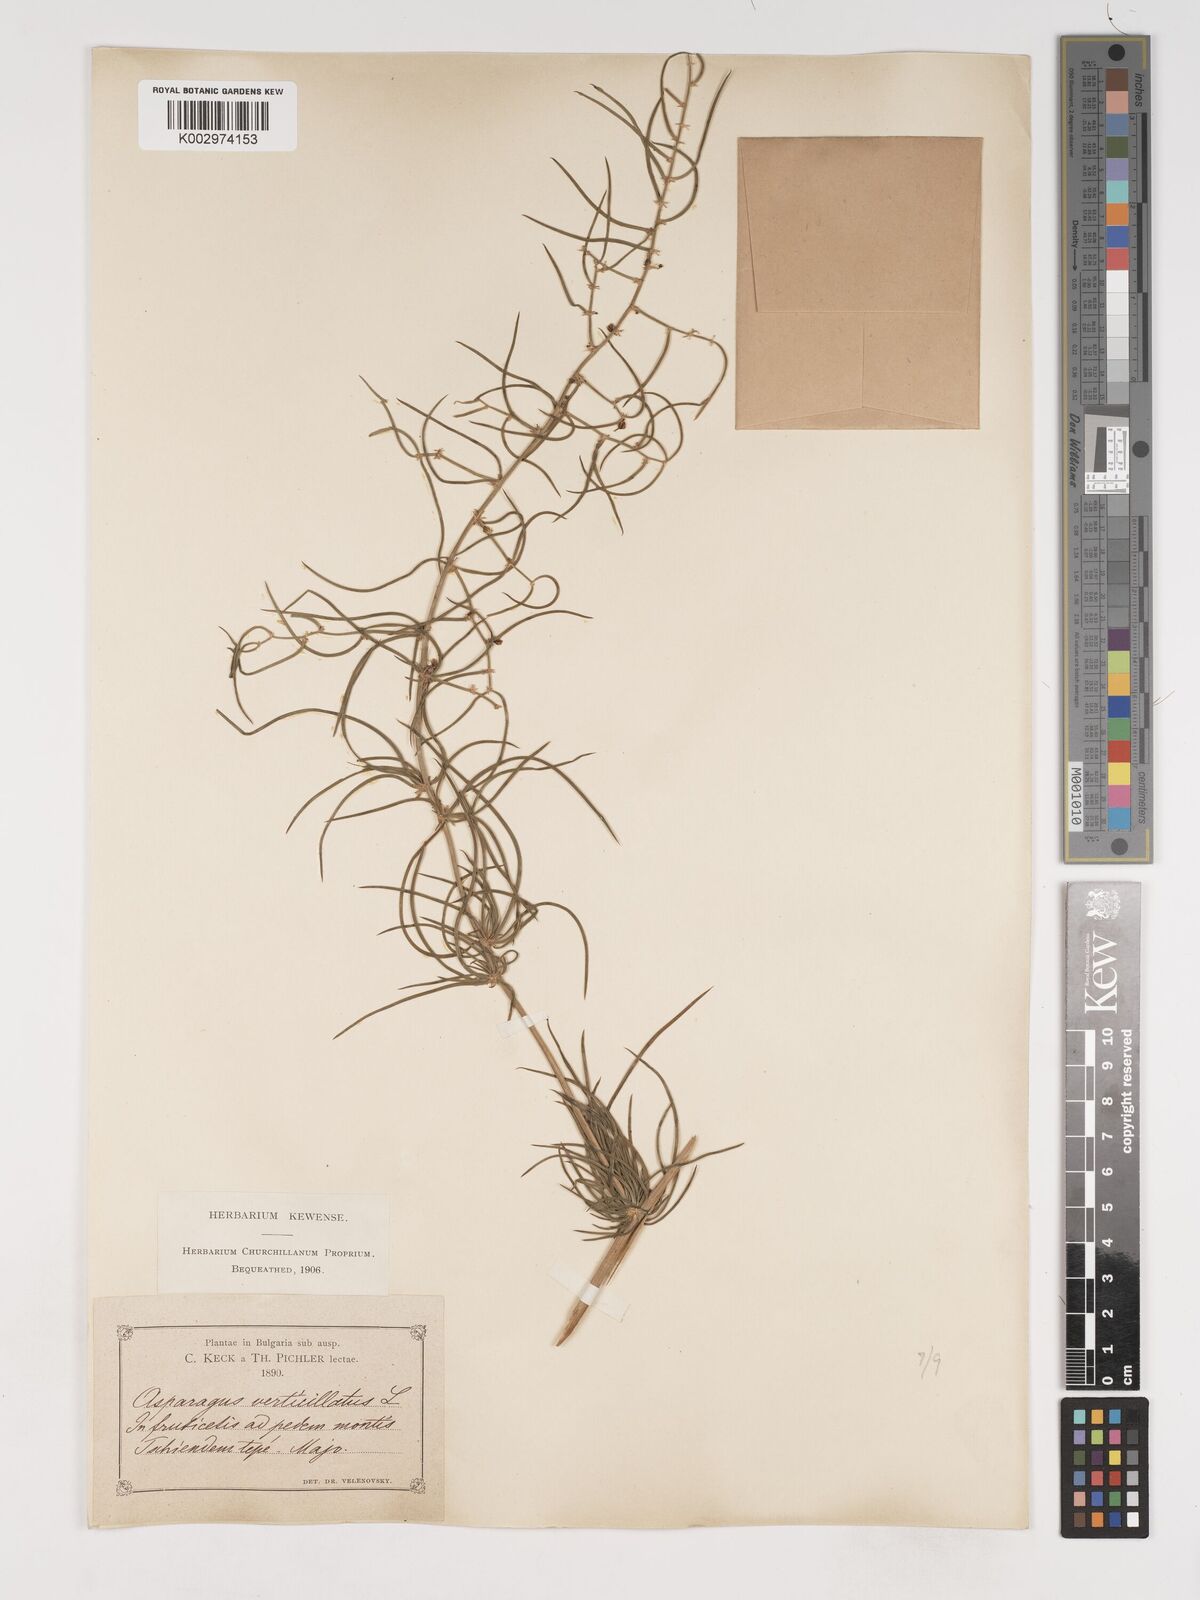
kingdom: Plantae
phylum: Tracheophyta
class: Liliopsida
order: Asparagales
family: Asparagaceae
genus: Asparagus
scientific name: Asparagus verticillatus
